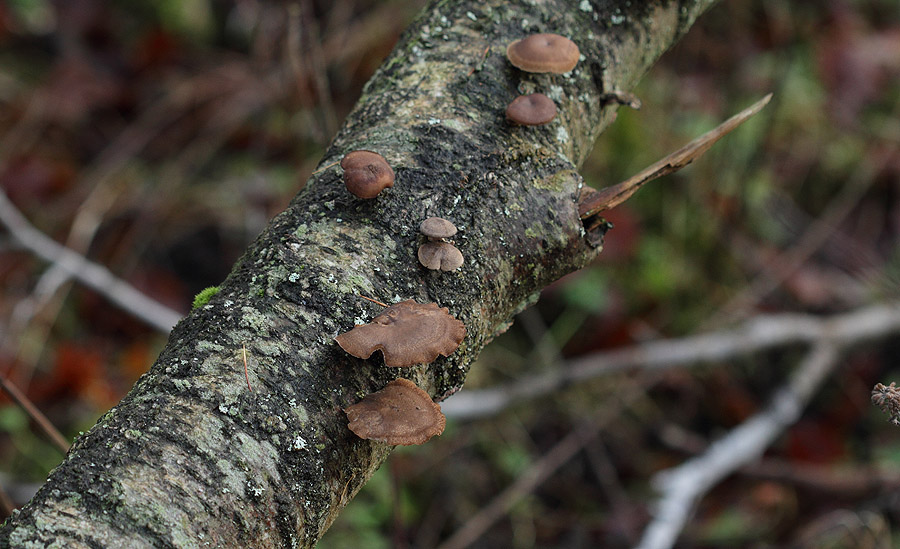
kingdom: Fungi
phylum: Basidiomycota
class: Agaricomycetes
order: Polyporales
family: Polyporaceae
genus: Lentinus
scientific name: Lentinus brumalis
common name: vinter-stilkporesvamp
